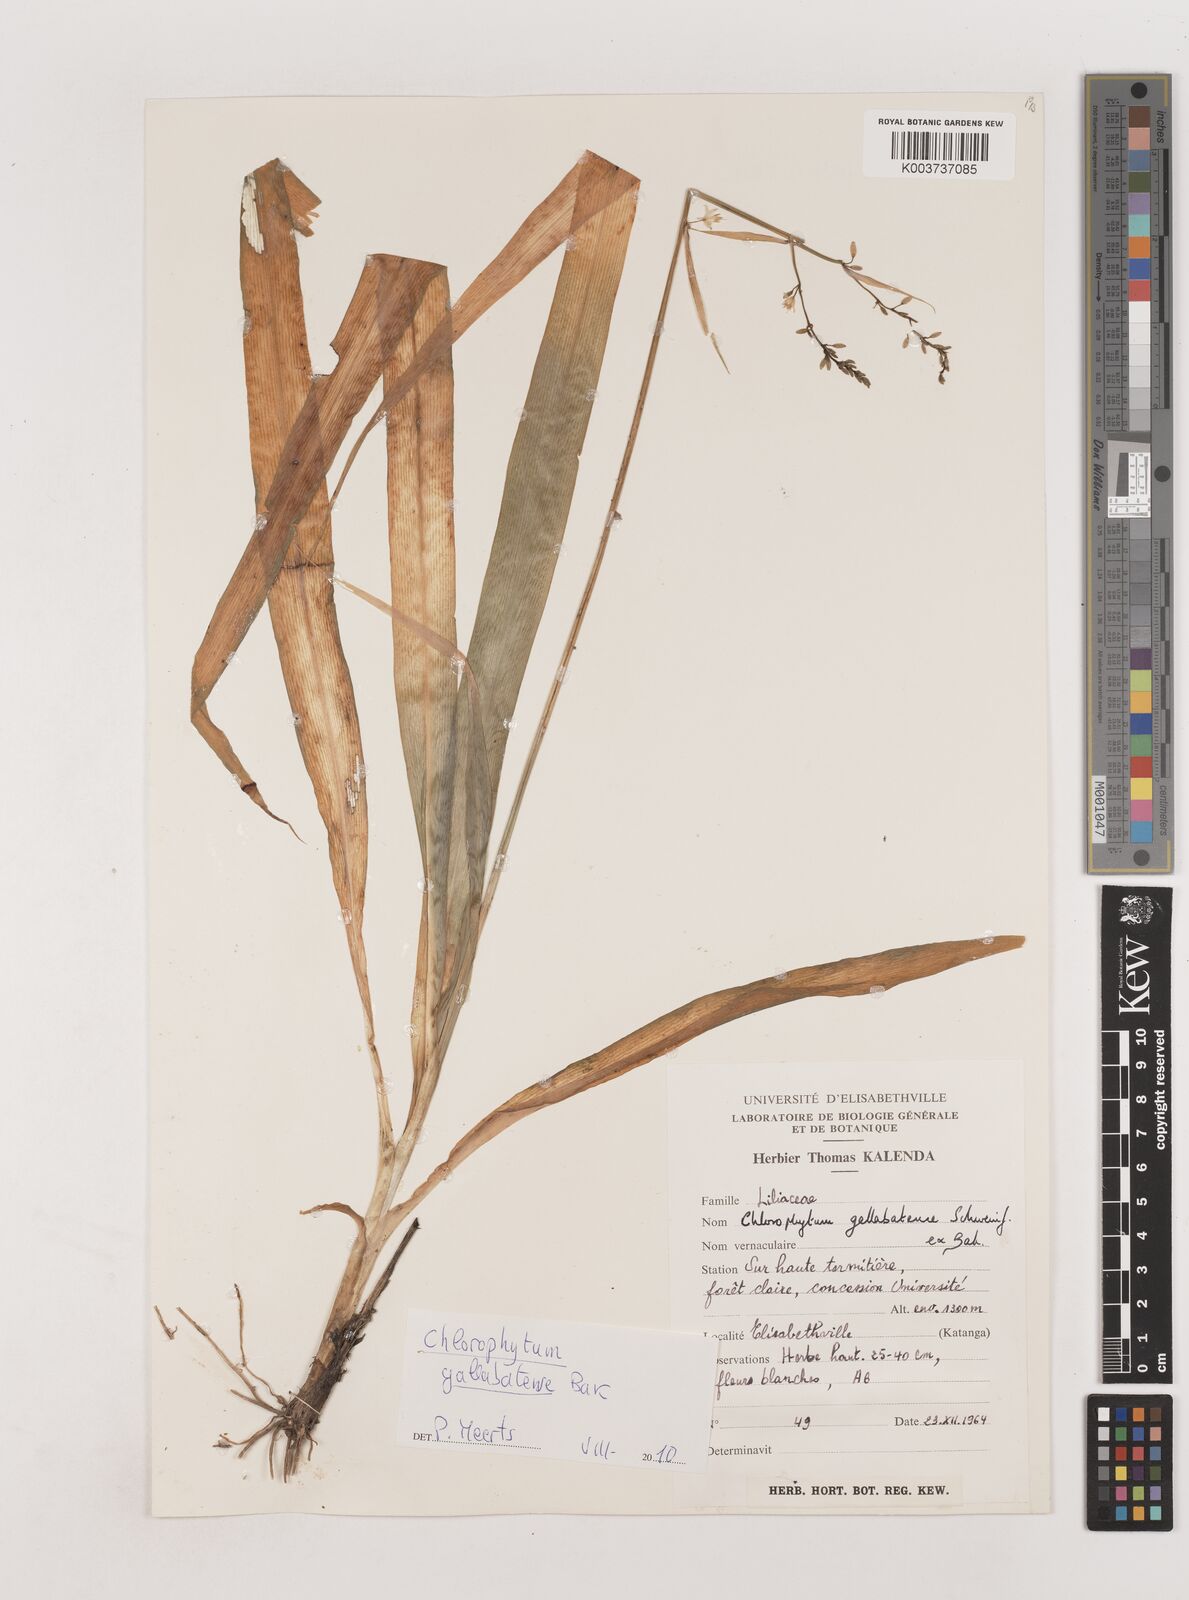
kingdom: Plantae
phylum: Tracheophyta
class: Liliopsida
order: Asparagales
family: Asparagaceae
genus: Chlorophytum
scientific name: Chlorophytum gallabatense
